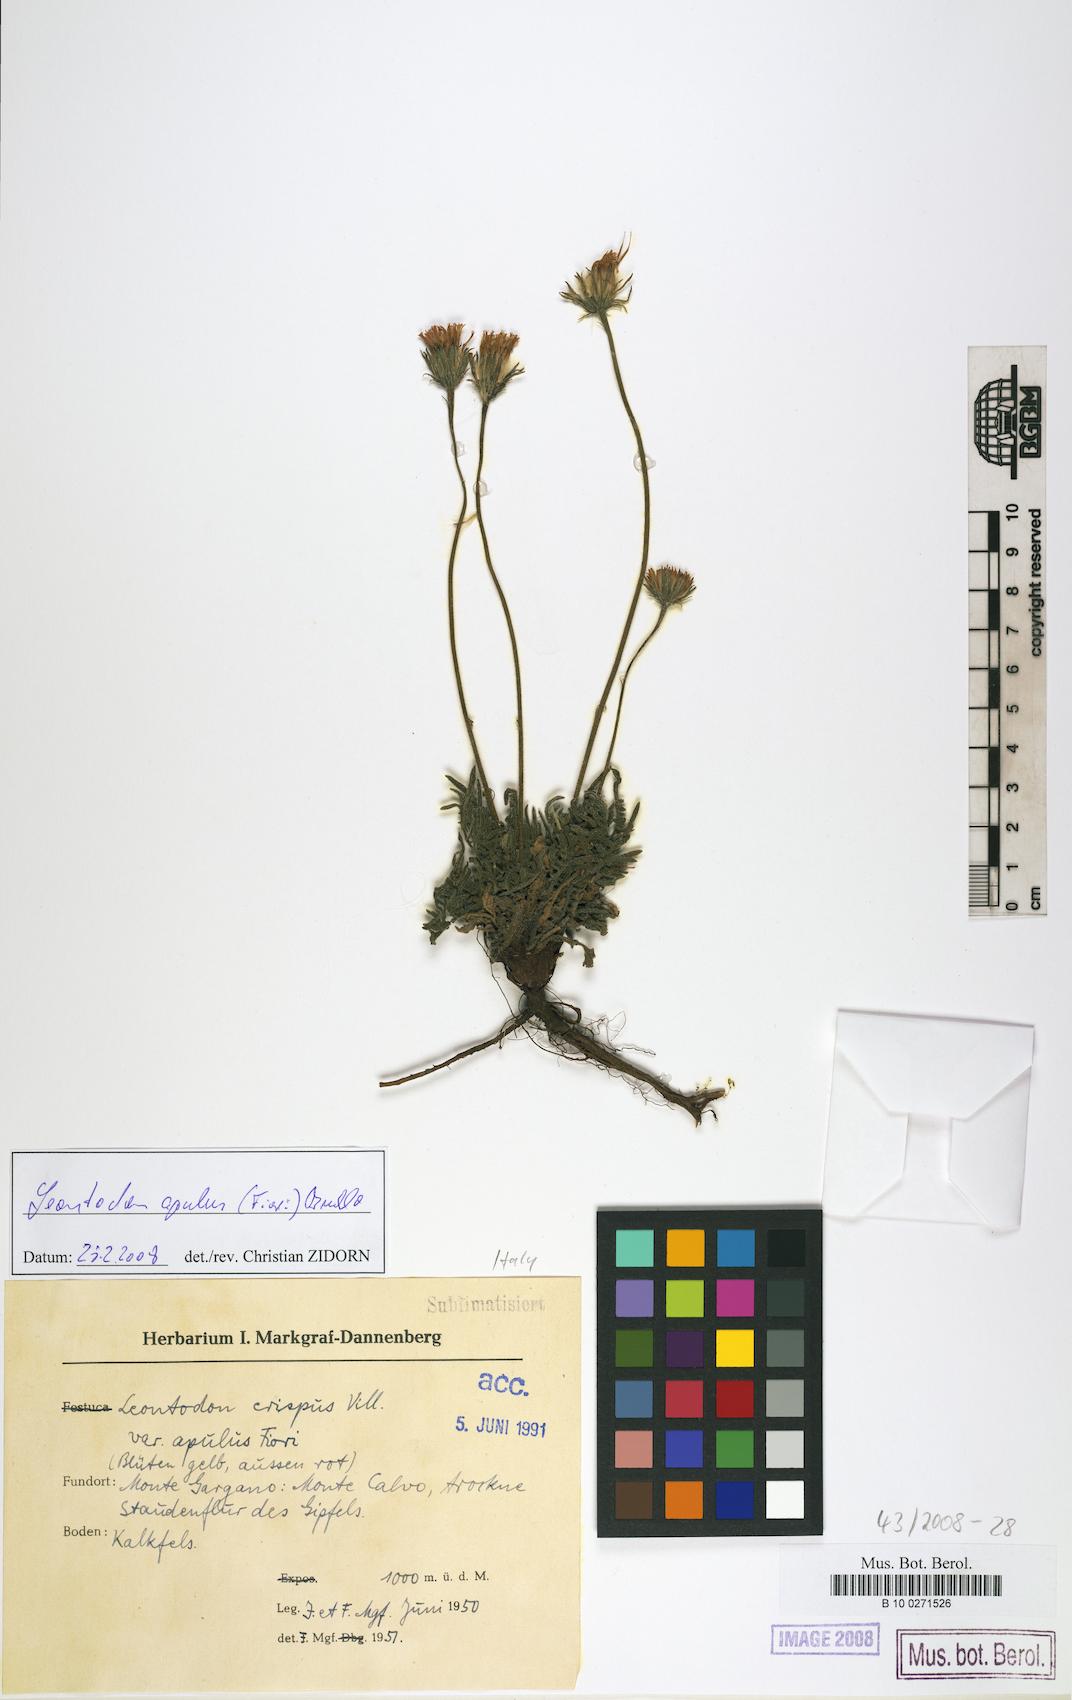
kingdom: Plantae
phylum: Tracheophyta
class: Magnoliopsida
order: Asterales
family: Asteraceae
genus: Leontodon
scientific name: Leontodon apulus
